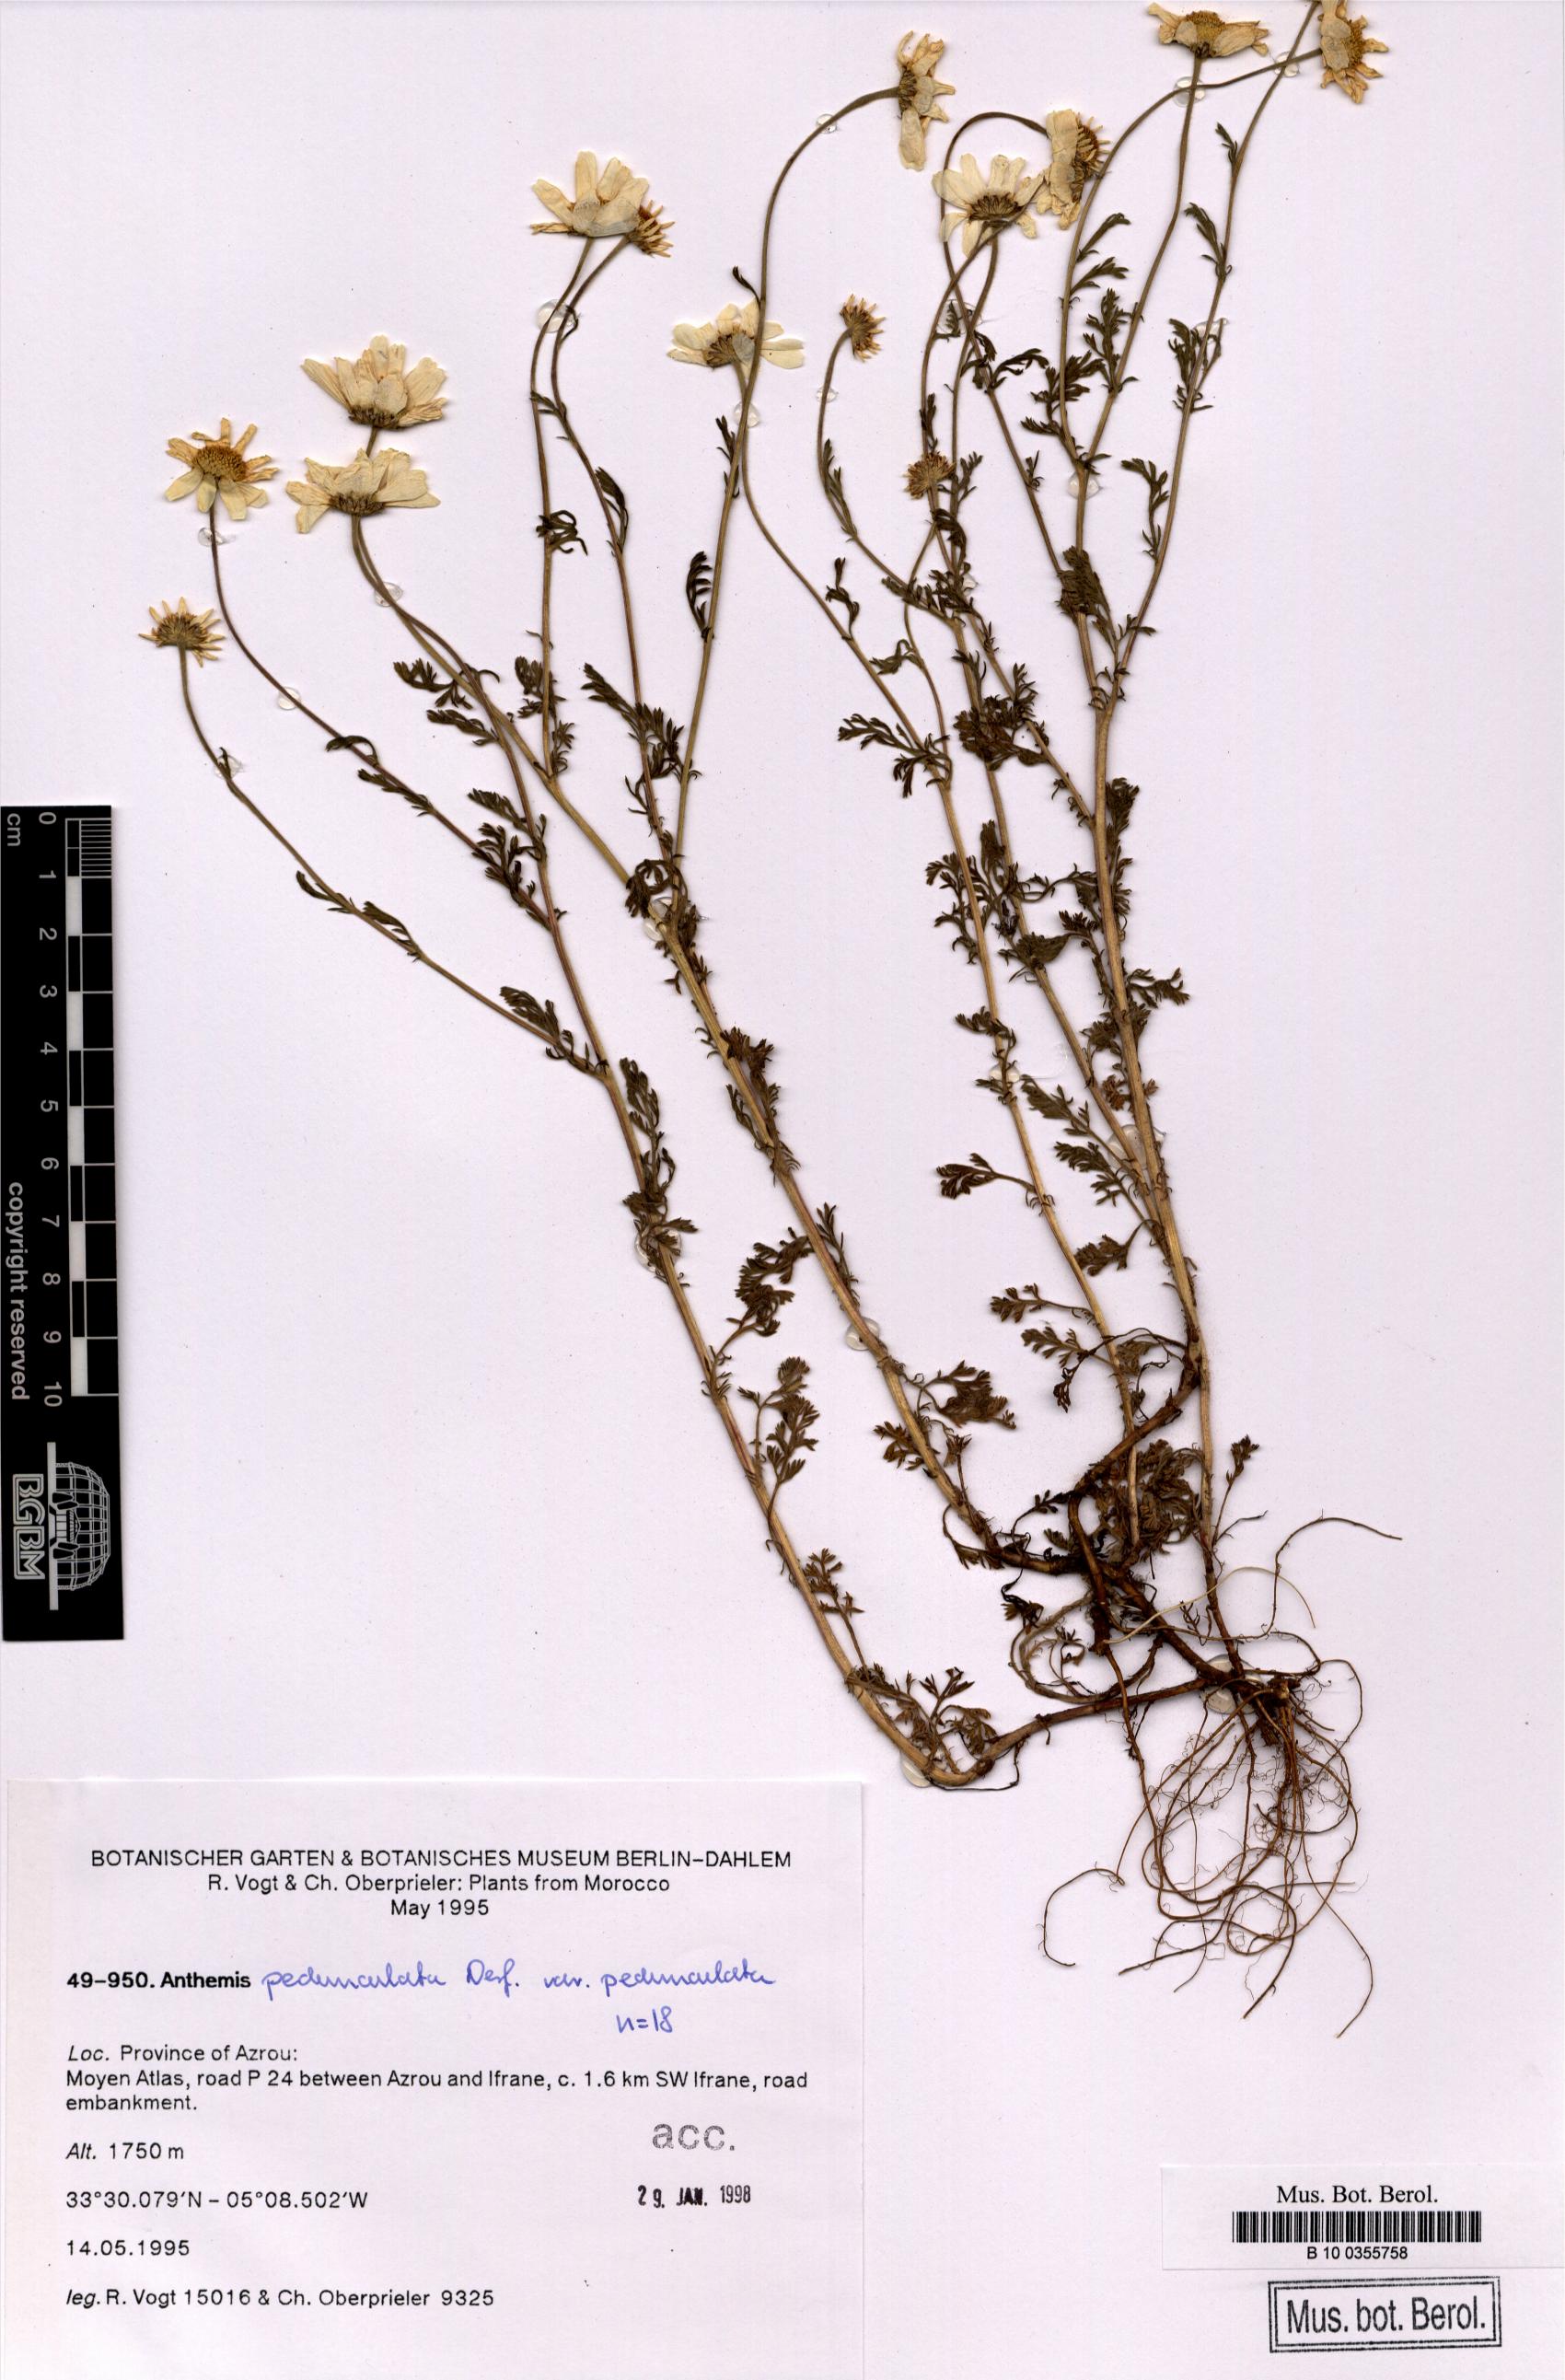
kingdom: Plantae
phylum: Tracheophyta
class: Magnoliopsida
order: Asterales
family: Asteraceae
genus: Anthemis
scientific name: Anthemis pedunculata
